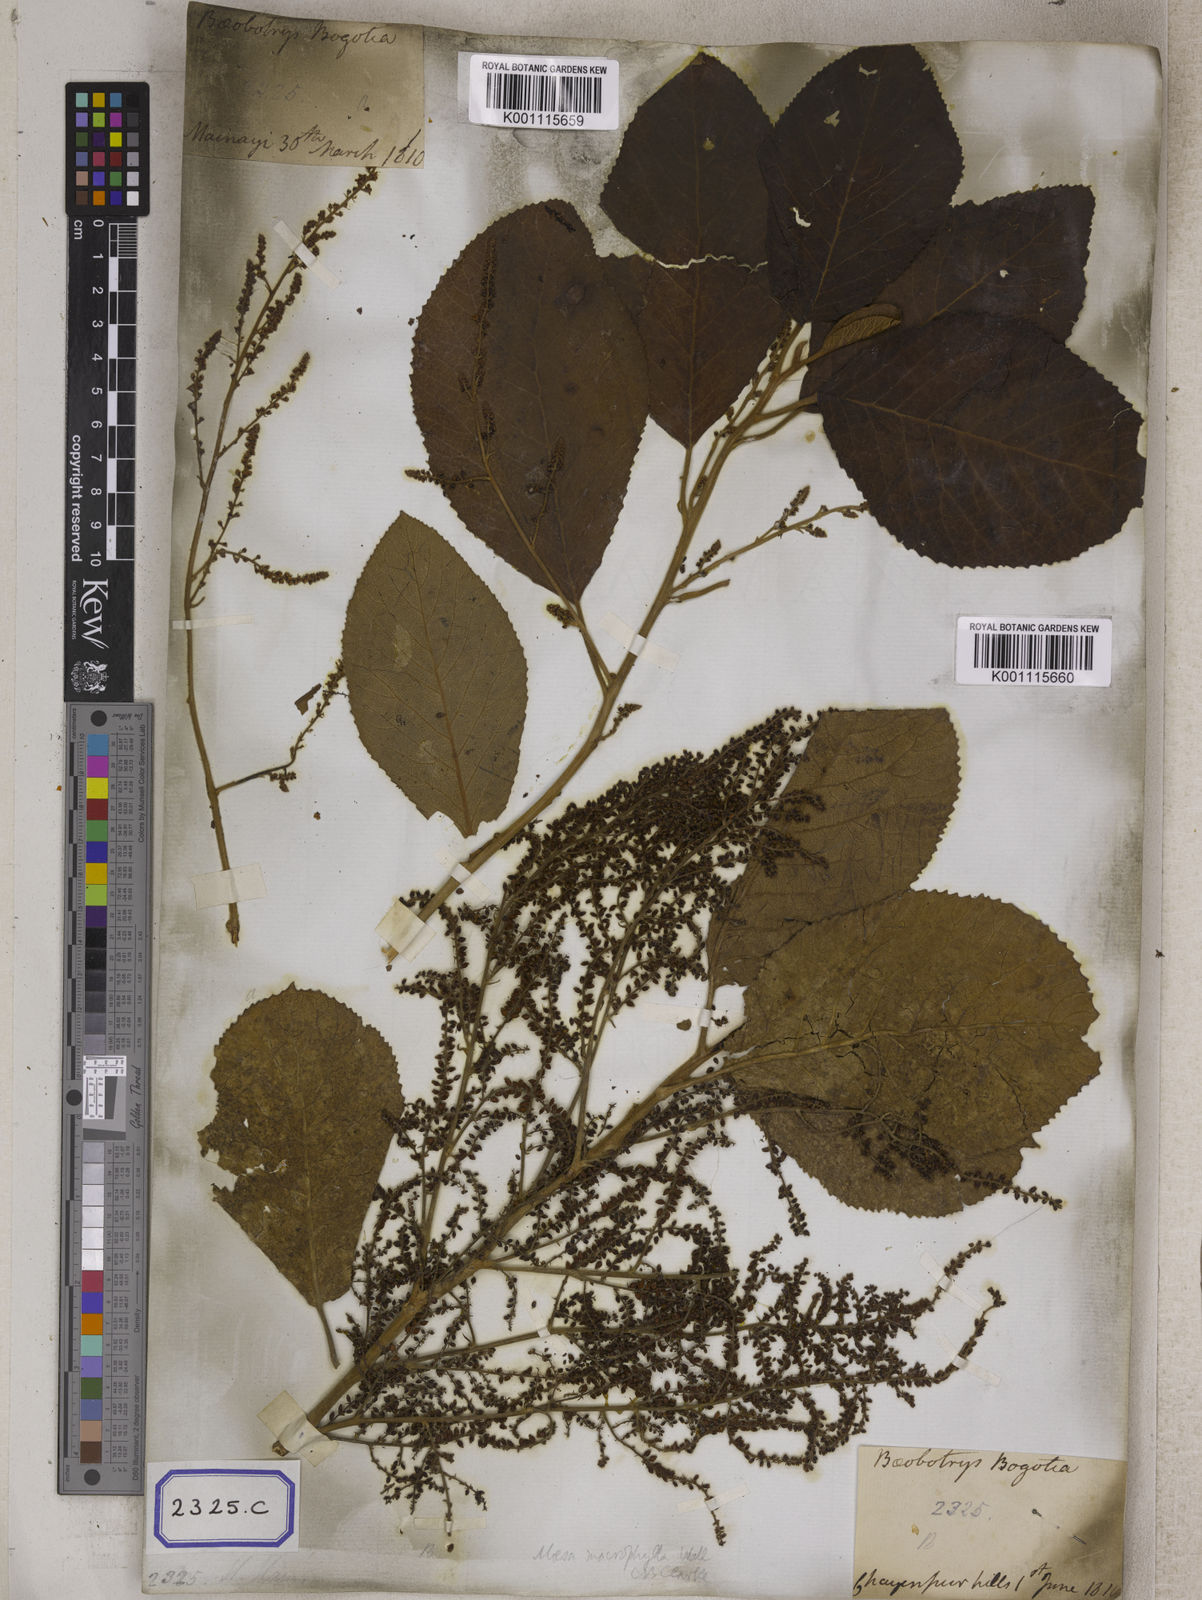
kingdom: Plantae
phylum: Tracheophyta
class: Magnoliopsida
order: Ericales
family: Primulaceae
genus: Maesa
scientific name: Maesa macrophylla
